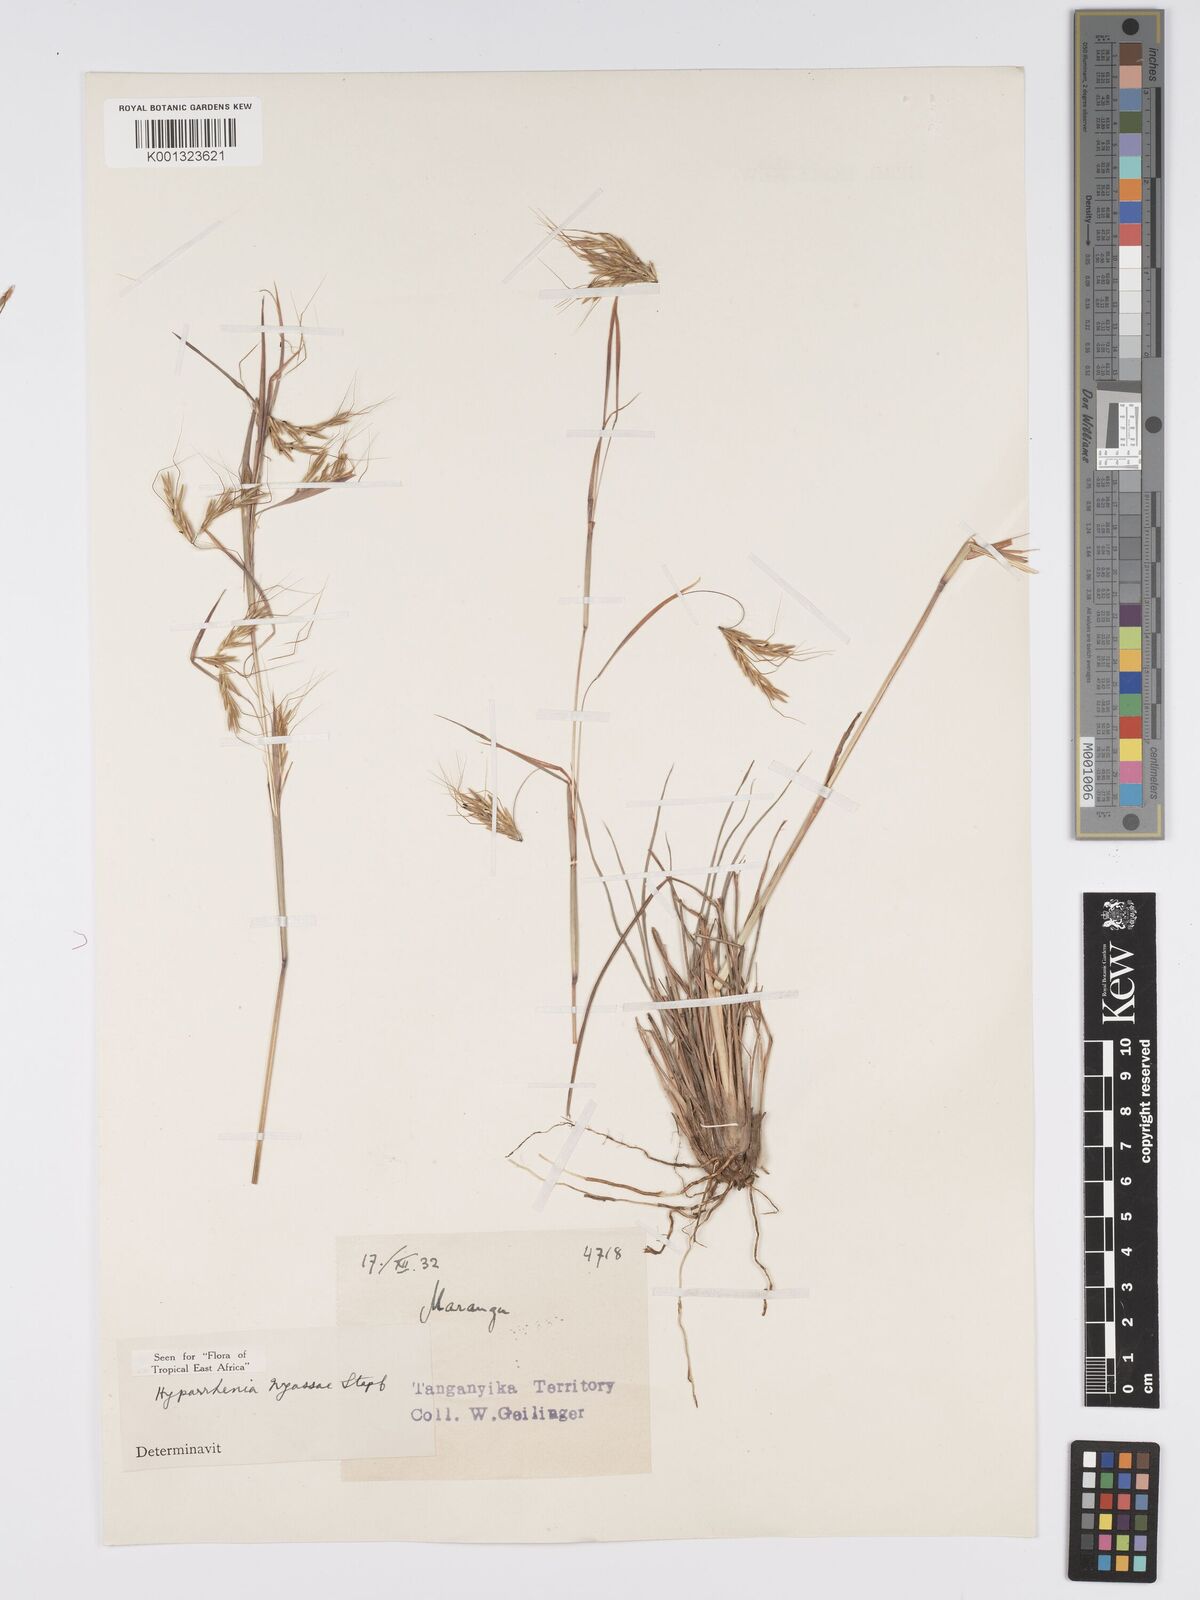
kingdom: Plantae
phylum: Tracheophyta
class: Liliopsida
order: Poales
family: Poaceae
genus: Hyparrhenia
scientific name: Hyparrhenia nyassae
